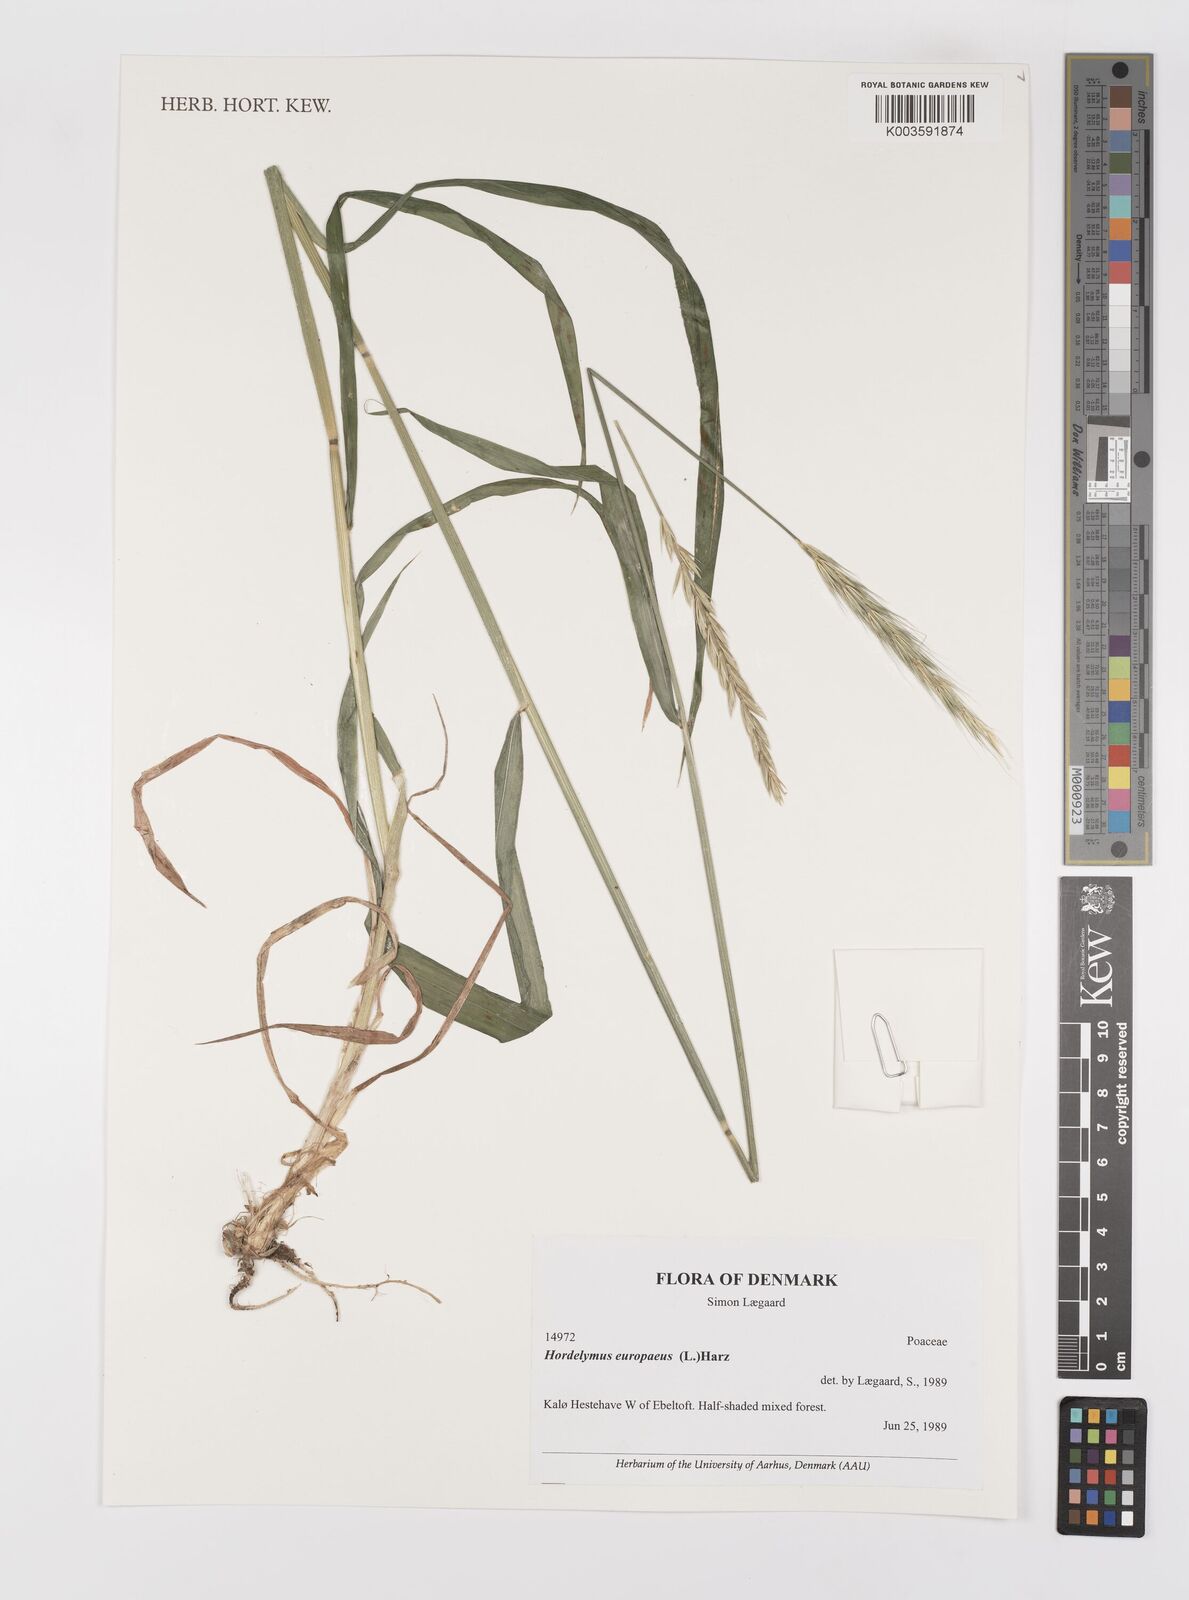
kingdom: Plantae
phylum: Tracheophyta
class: Liliopsida
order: Poales
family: Poaceae
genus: Hordelymus
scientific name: Hordelymus europaeus
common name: Wood-barley
